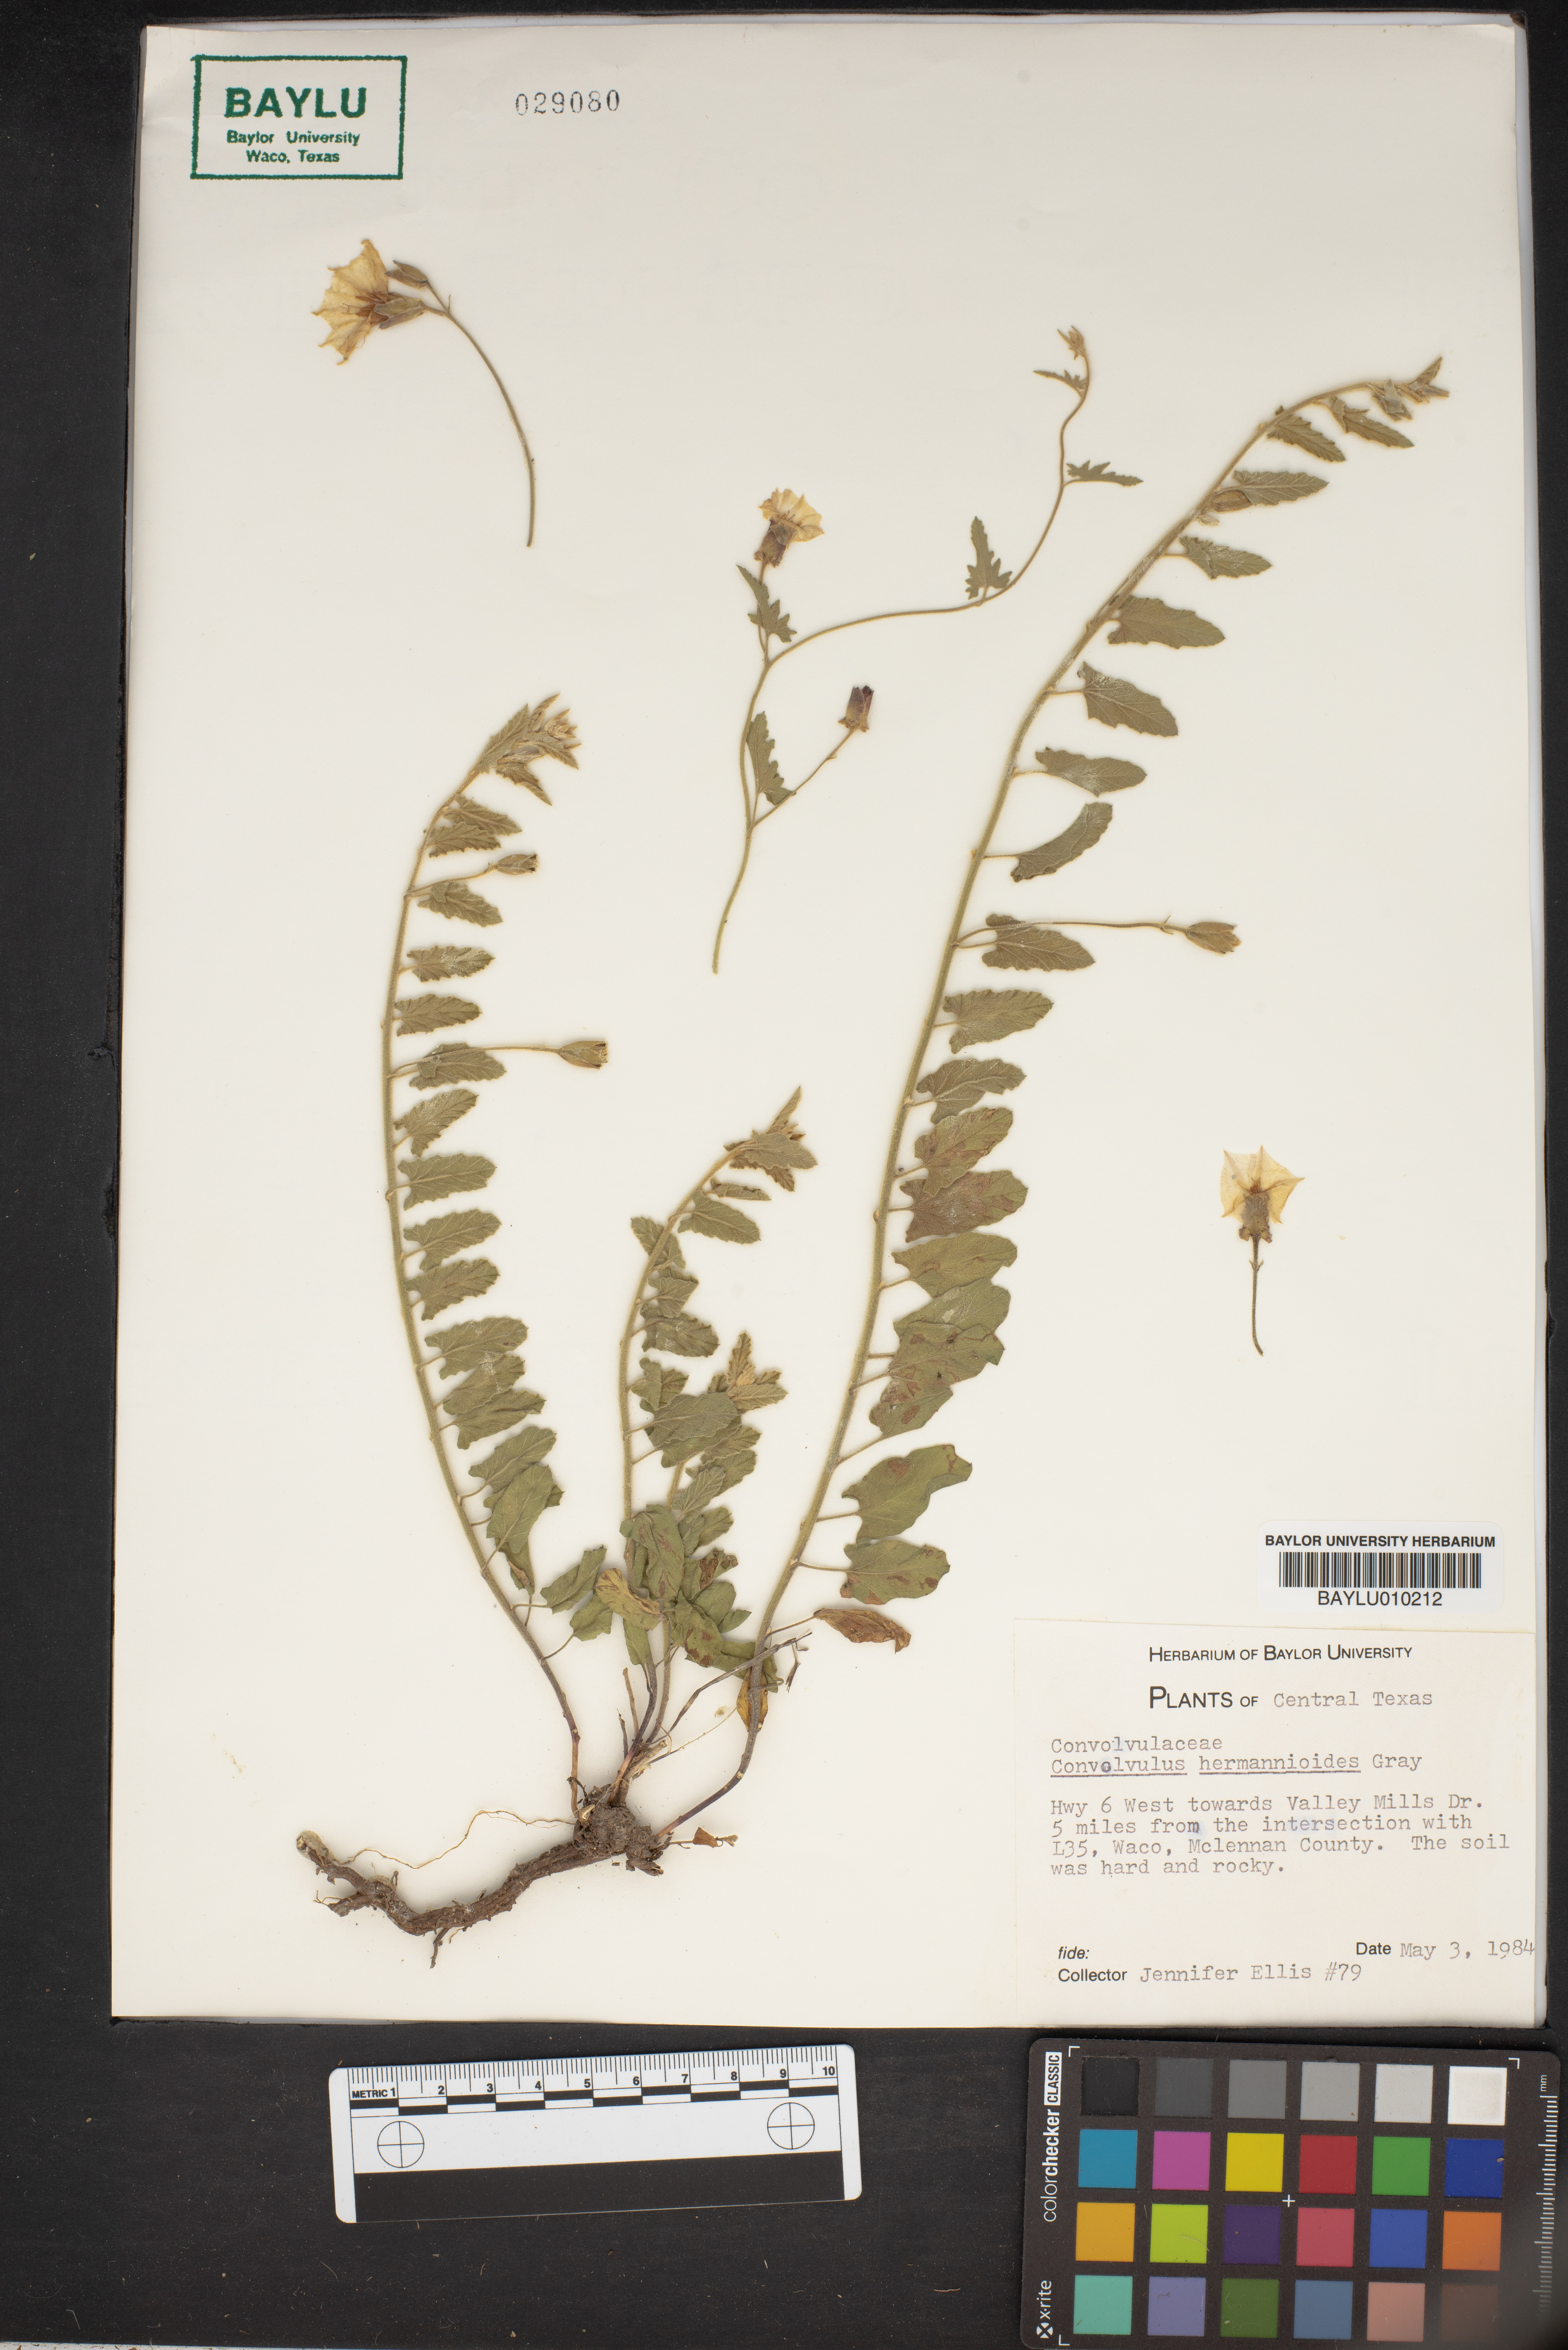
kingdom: Plantae
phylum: Tracheophyta
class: Magnoliopsida
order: Solanales
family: Convolvulaceae
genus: Convolvulus
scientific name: Convolvulus equitans
